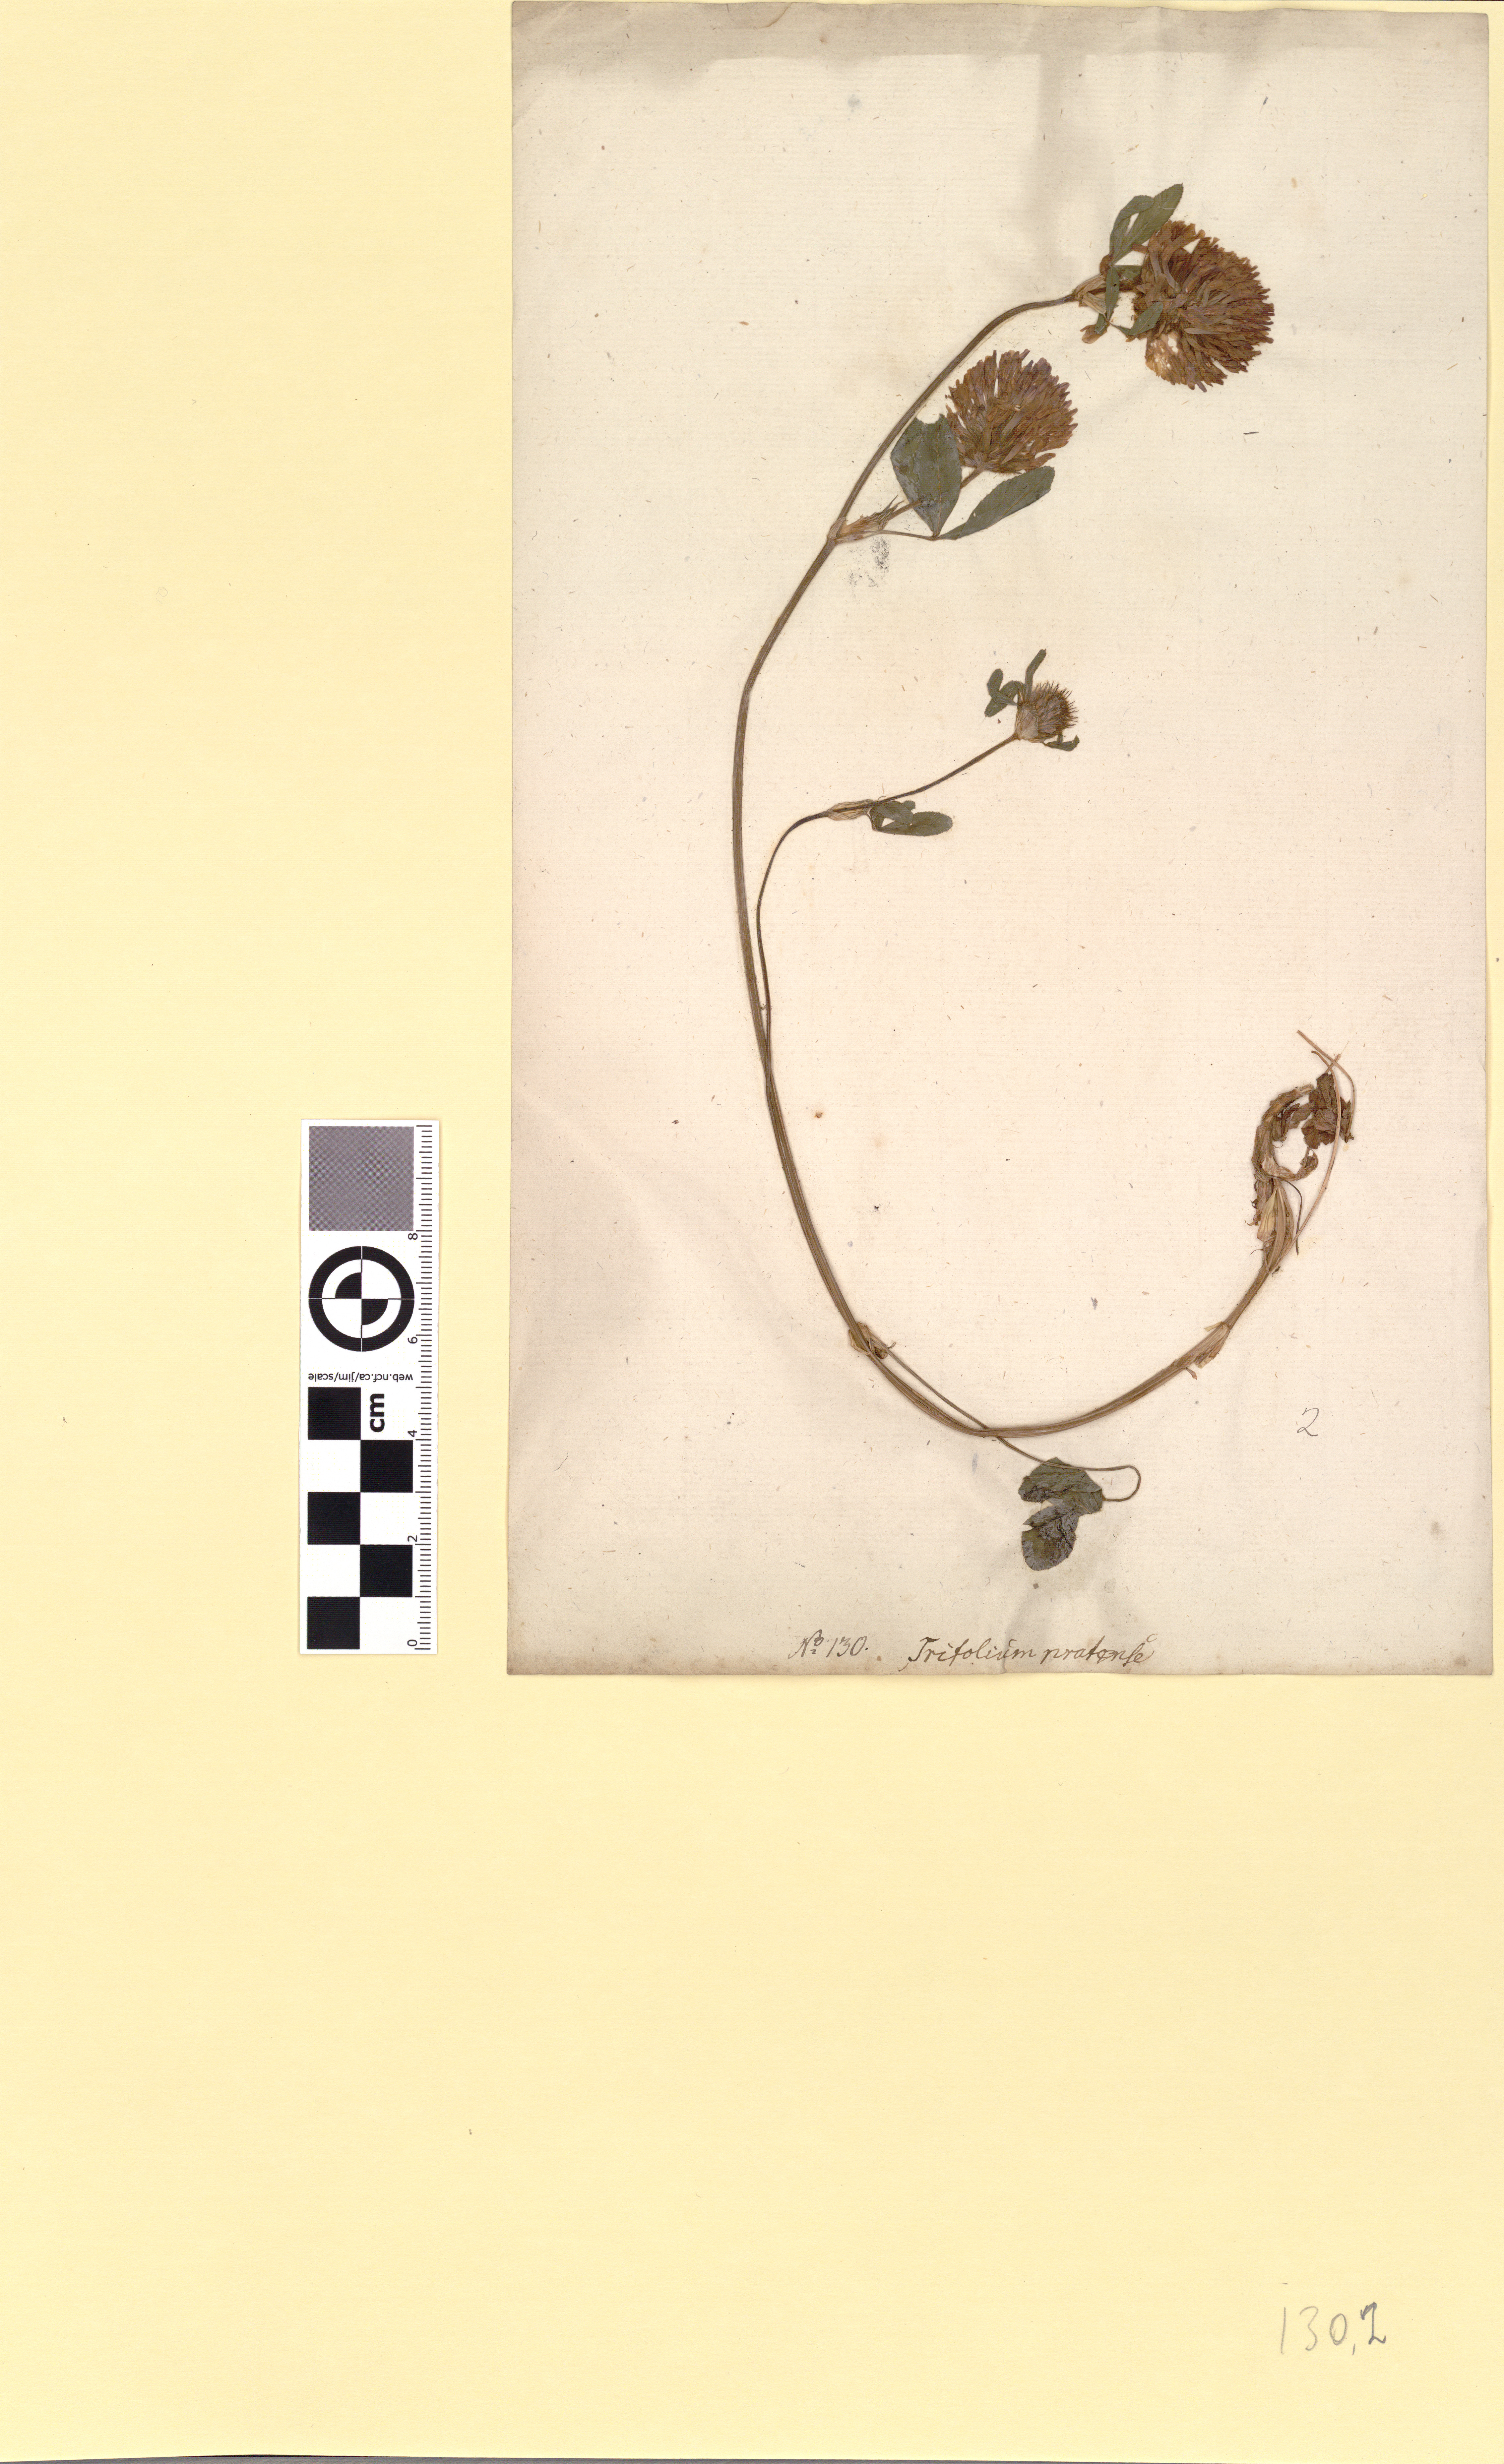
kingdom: Plantae
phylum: Tracheophyta
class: Magnoliopsida
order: Fabales
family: Fabaceae
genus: Trifolium
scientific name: Trifolium pratense
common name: Red clover
